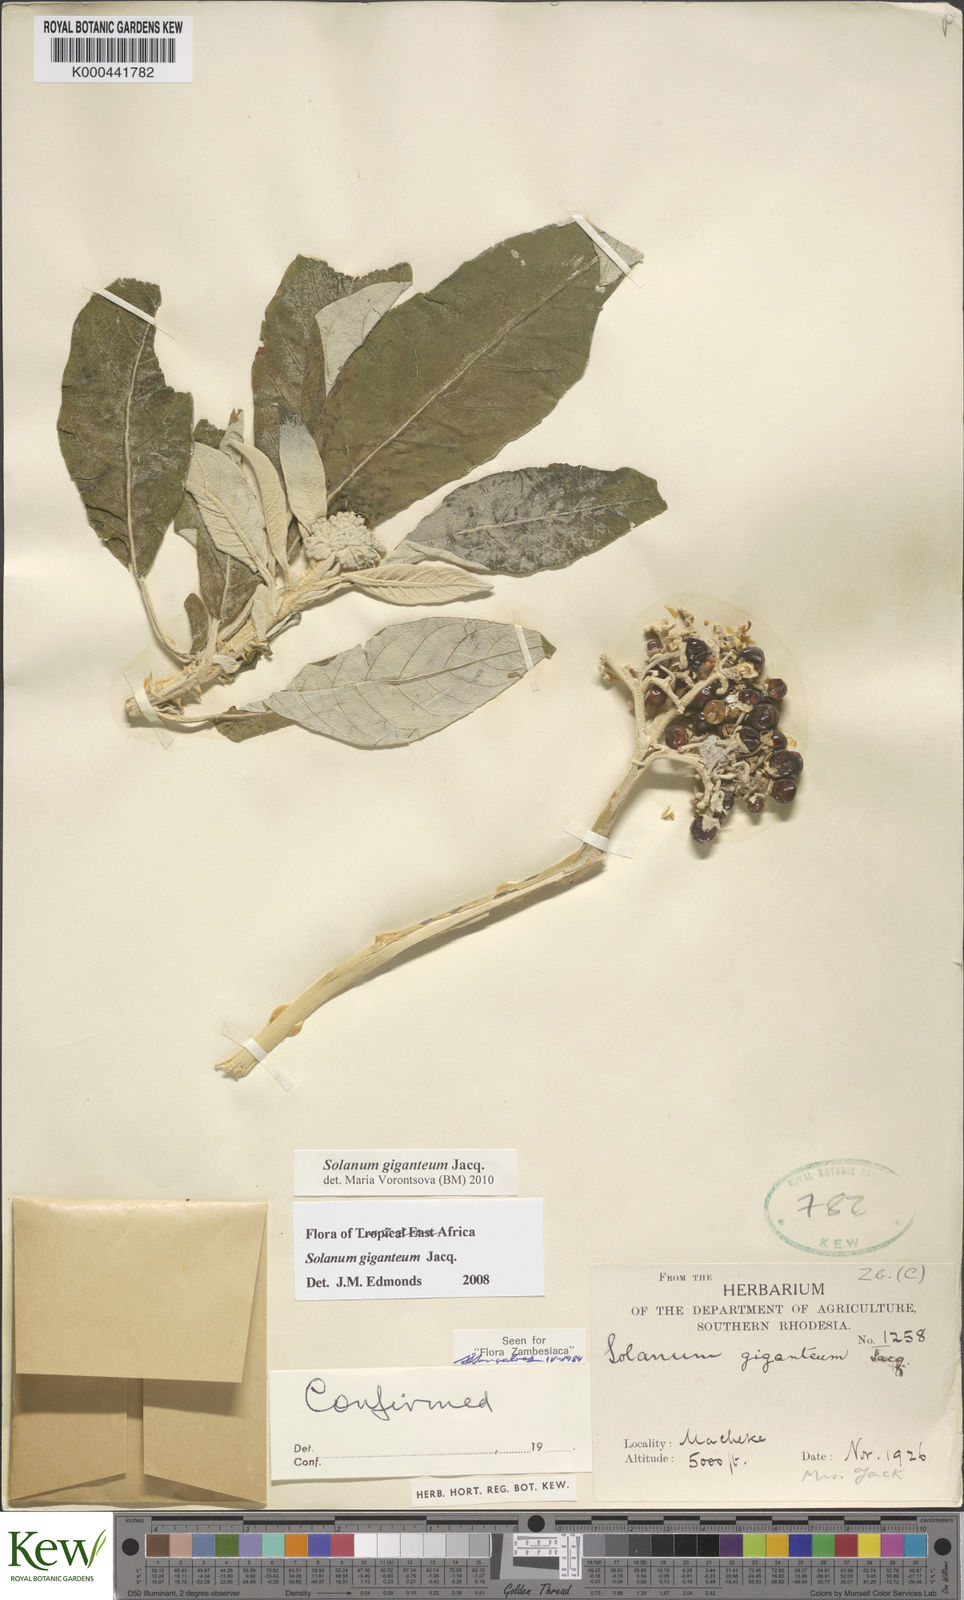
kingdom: Plantae
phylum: Tracheophyta
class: Magnoliopsida
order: Solanales
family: Solanaceae
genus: Solanum
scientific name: Solanum giganteum
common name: Healing-leaf-tree
